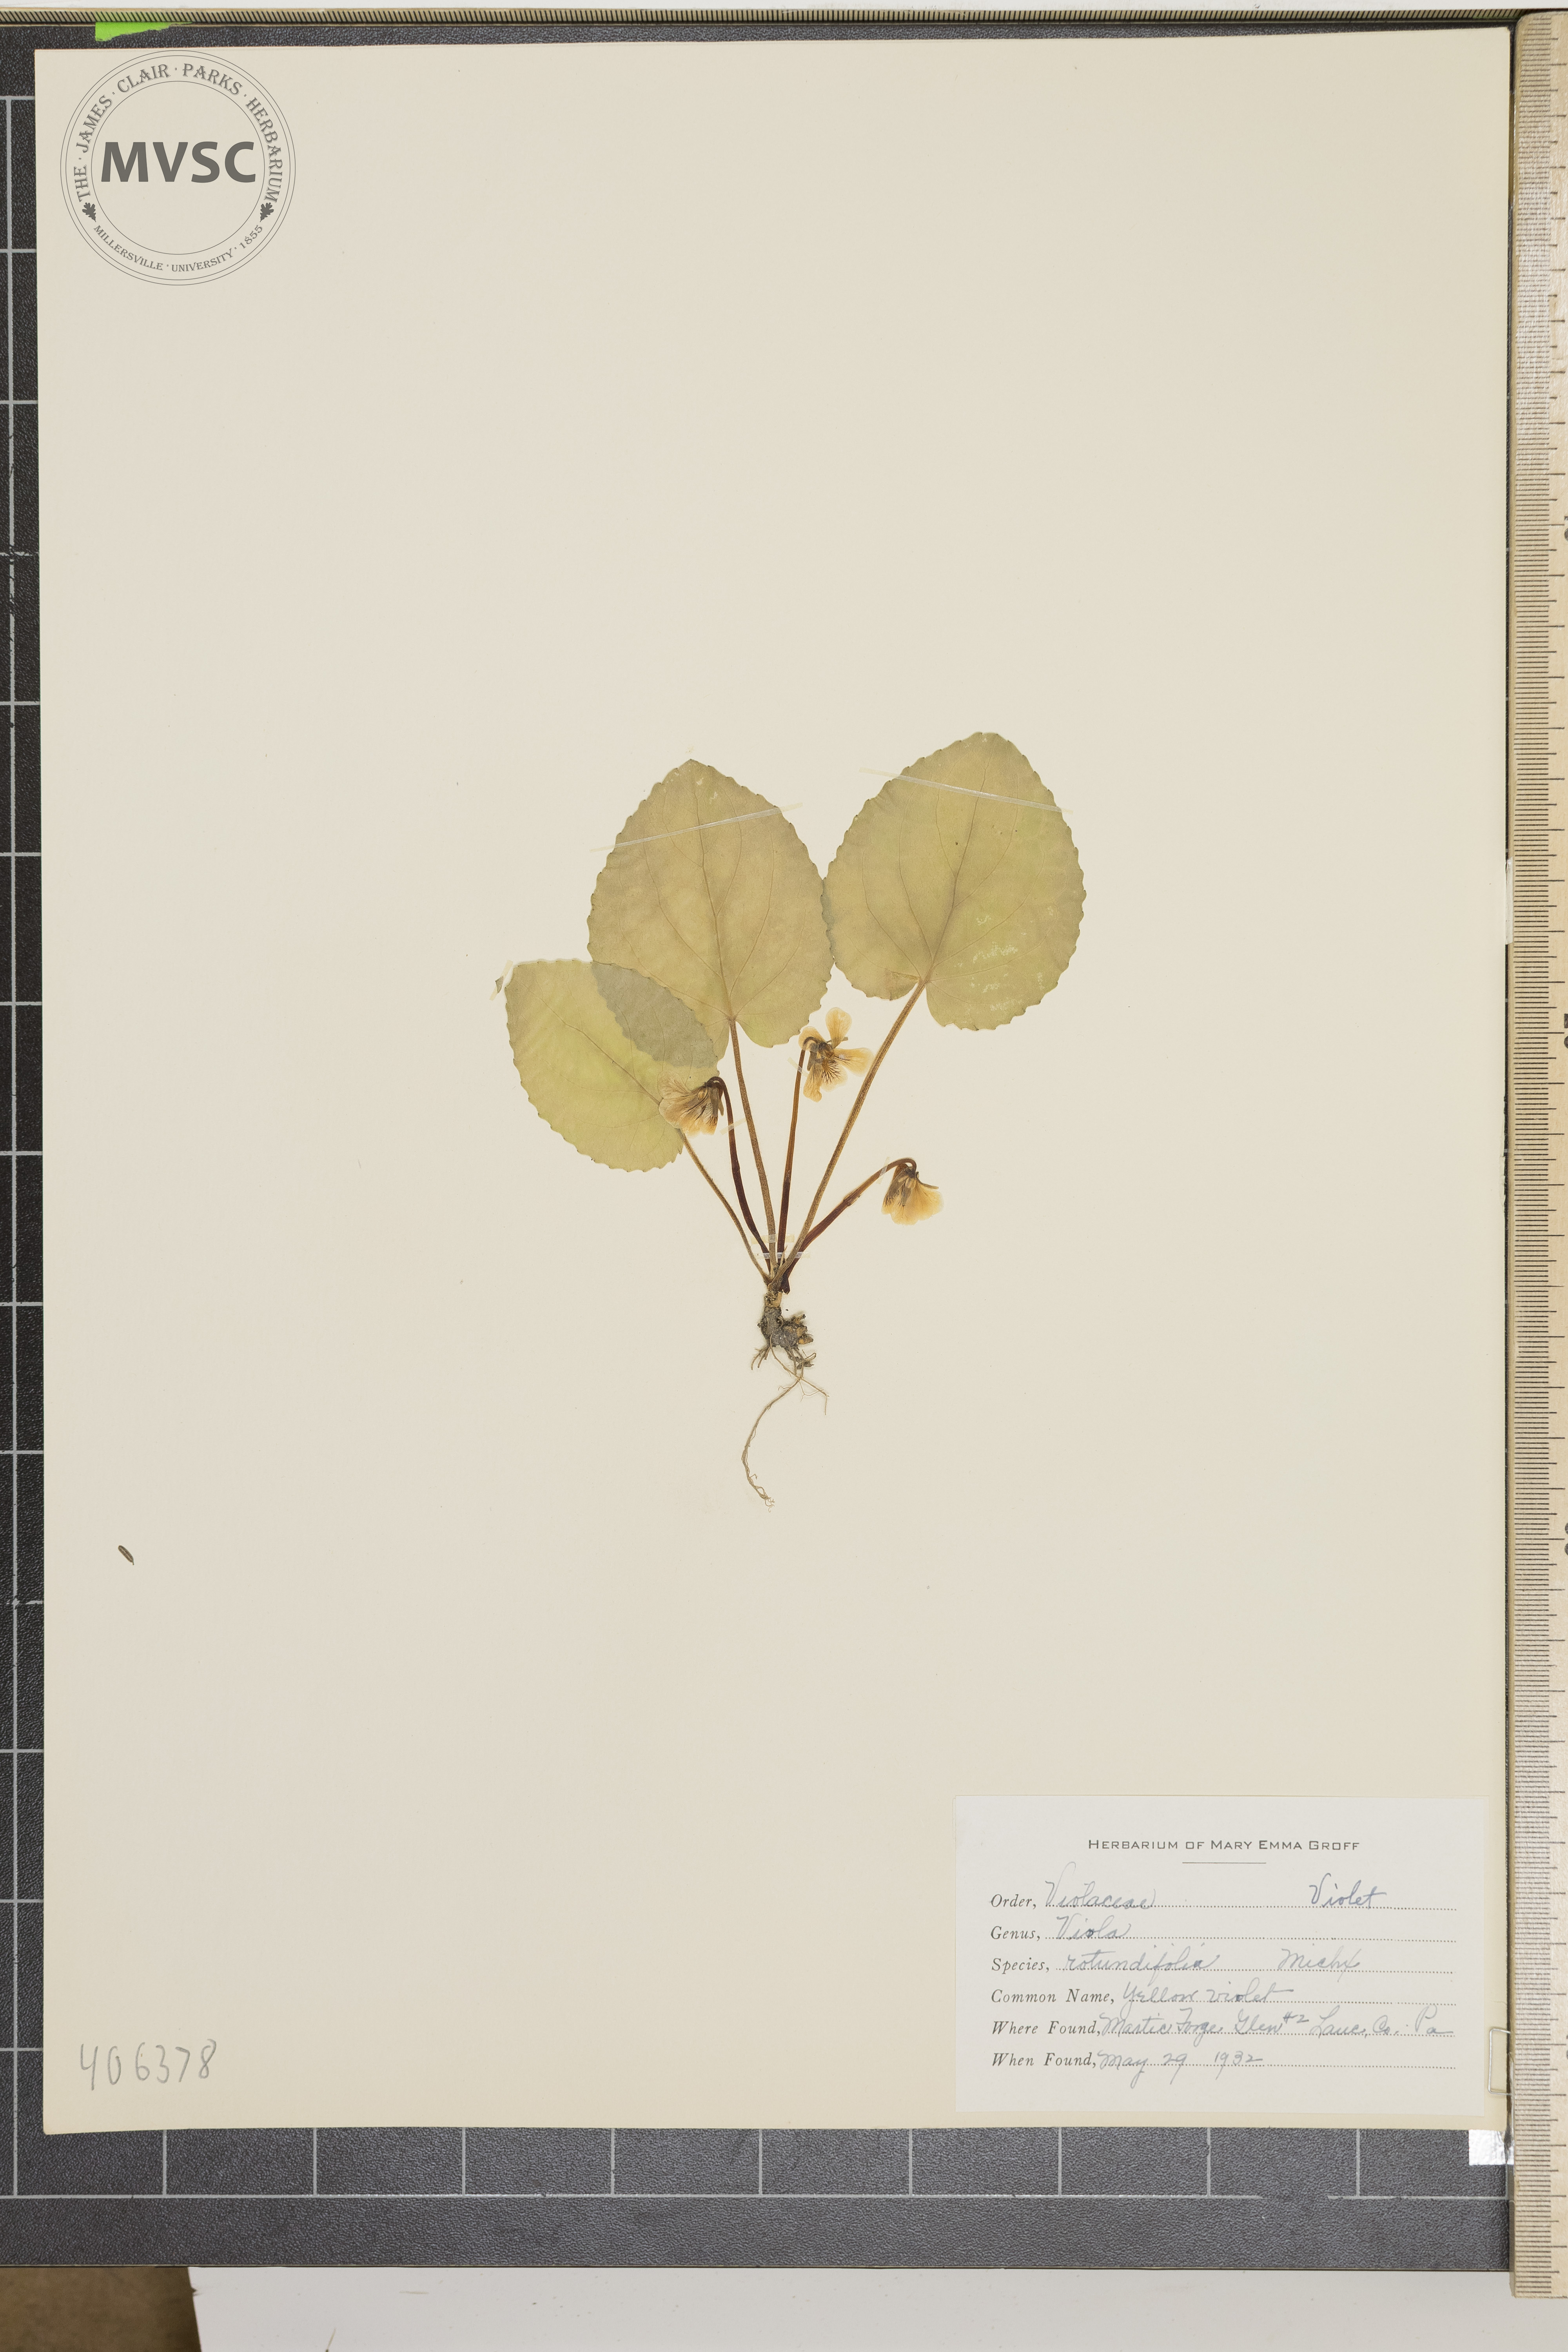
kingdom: Plantae
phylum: Tracheophyta
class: Magnoliopsida
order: Malpighiales
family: Violaceae
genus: Viola
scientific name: Viola rotundifolia
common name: Yellow violet
